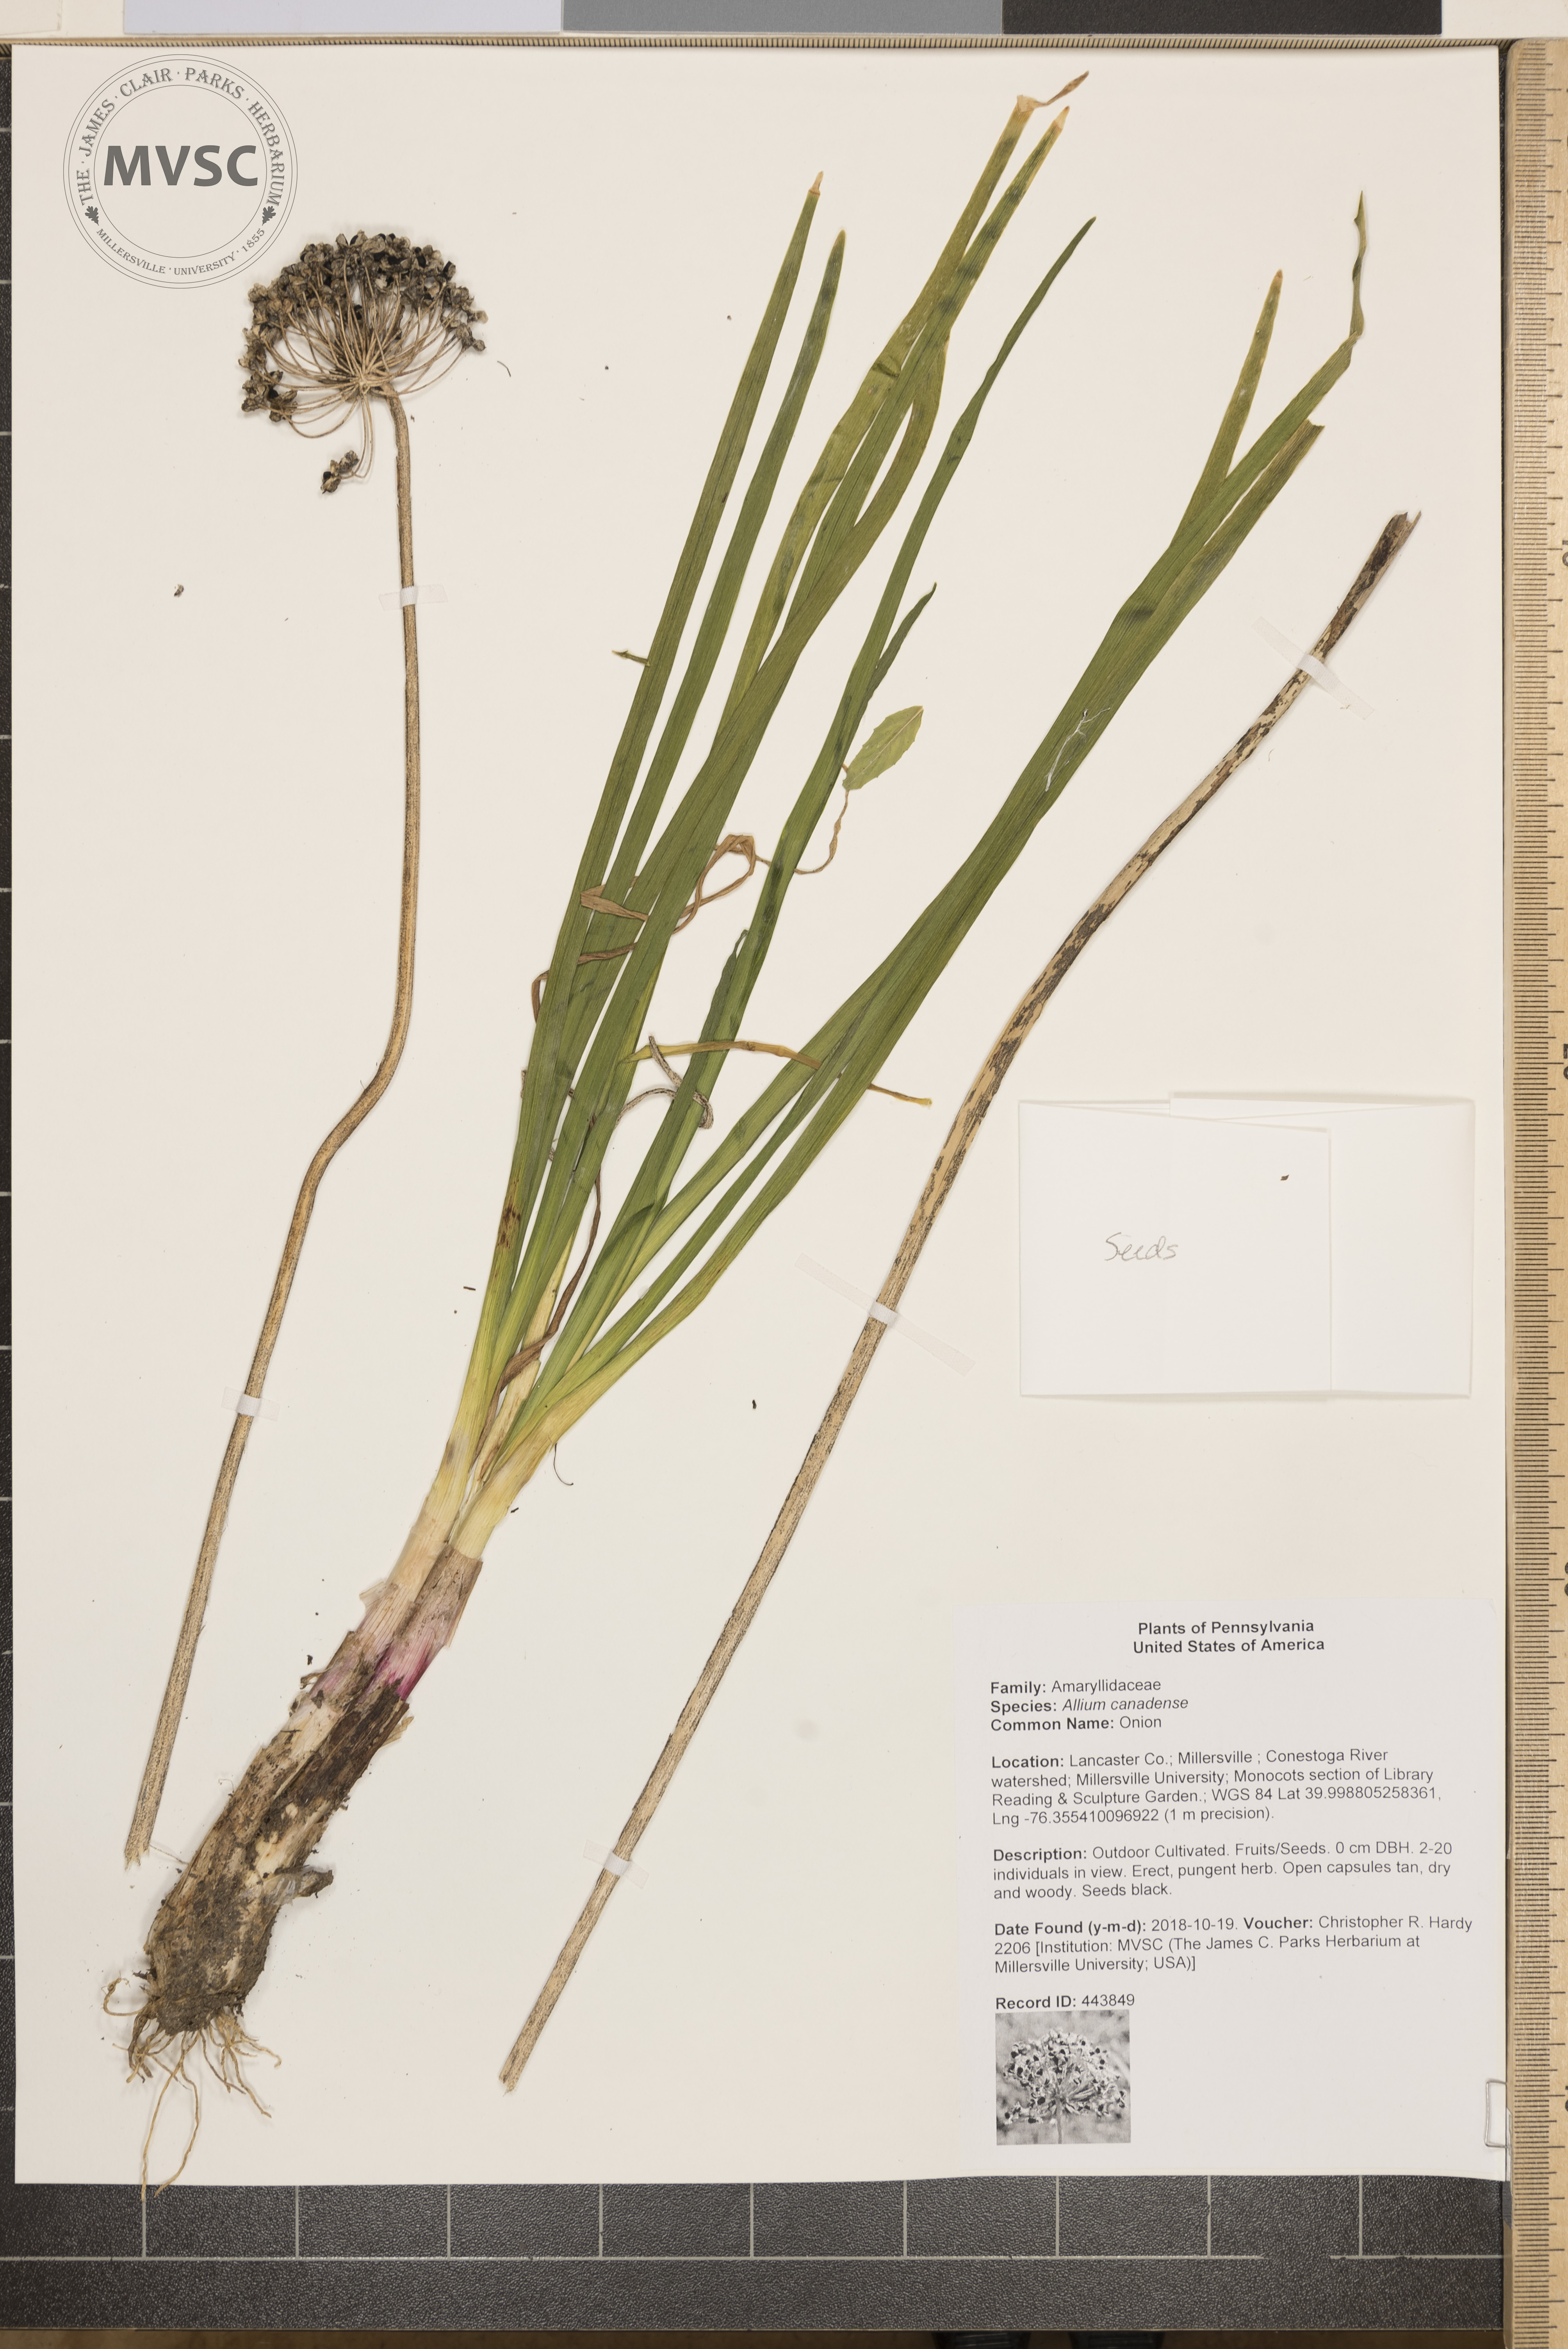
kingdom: Plantae
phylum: Tracheophyta
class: Liliopsida
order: Asparagales
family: Amaryllidaceae
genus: Allium
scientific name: Allium canadense
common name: Onion
